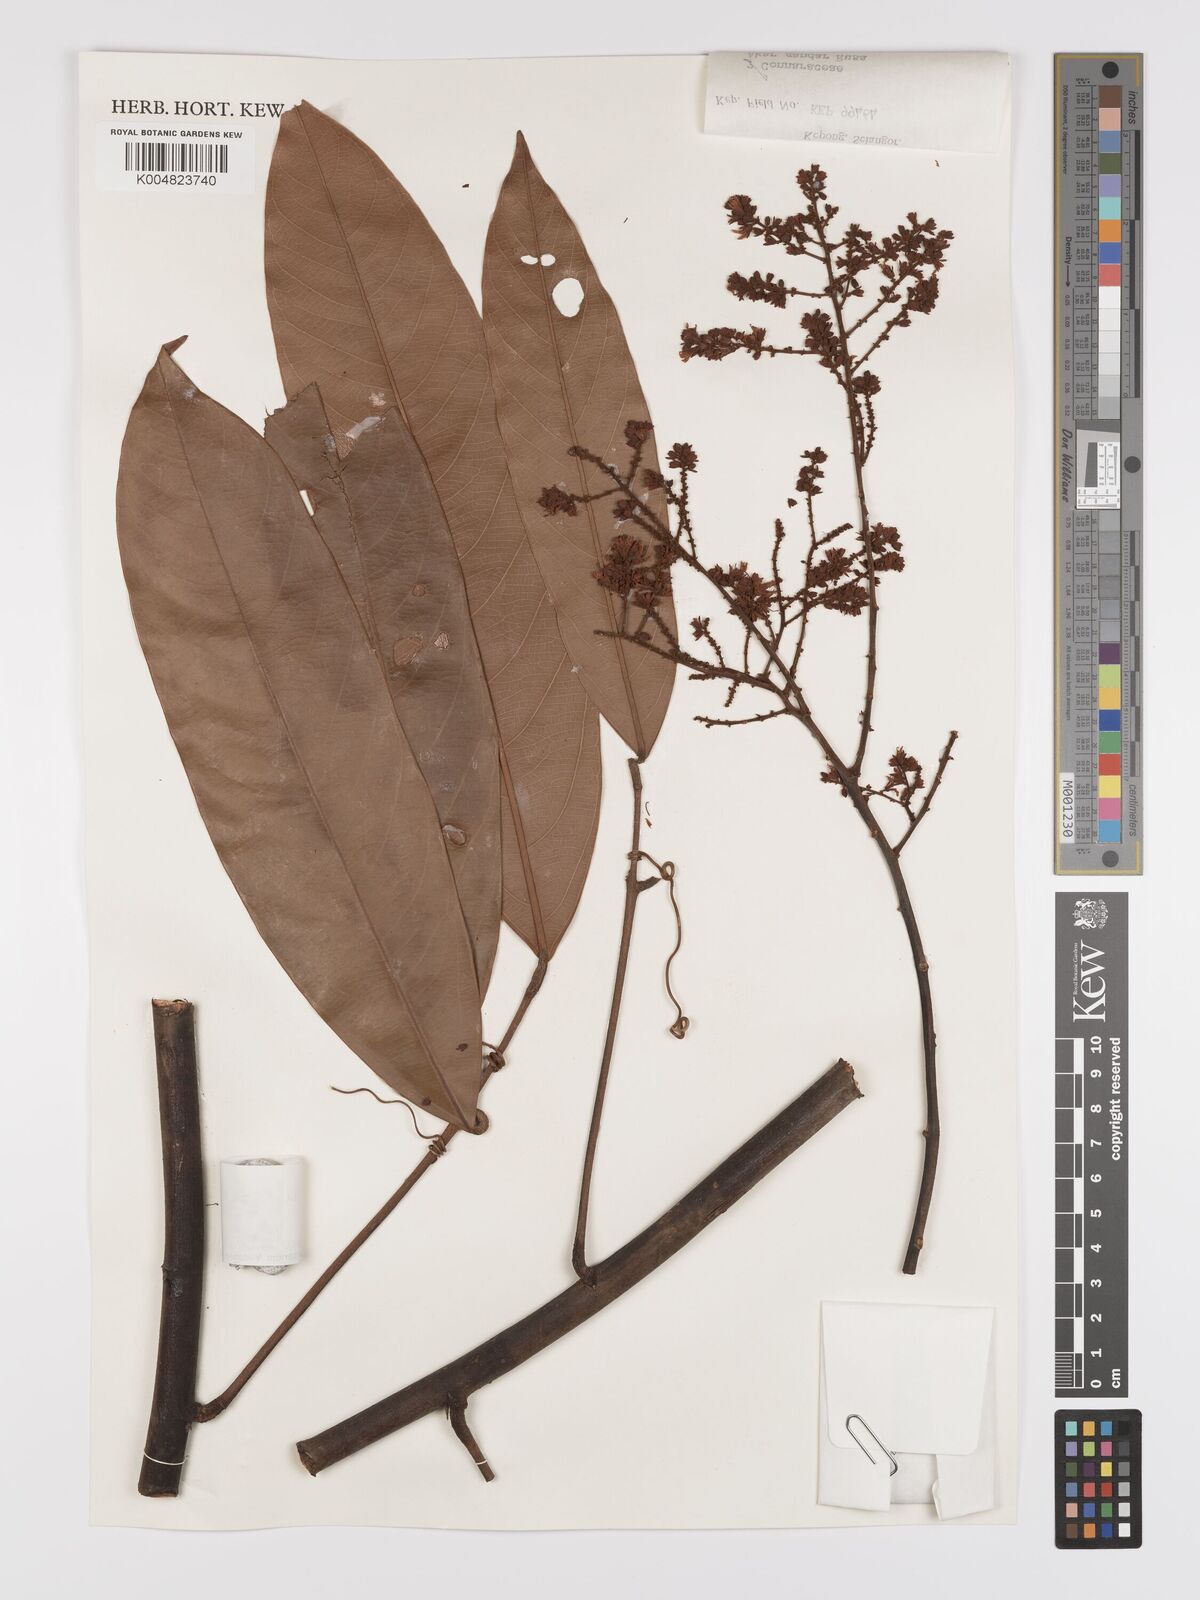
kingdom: Plantae
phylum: Tracheophyta
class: Magnoliopsida
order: Oxalidales
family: Connaraceae
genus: Connarus
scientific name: Connarus
